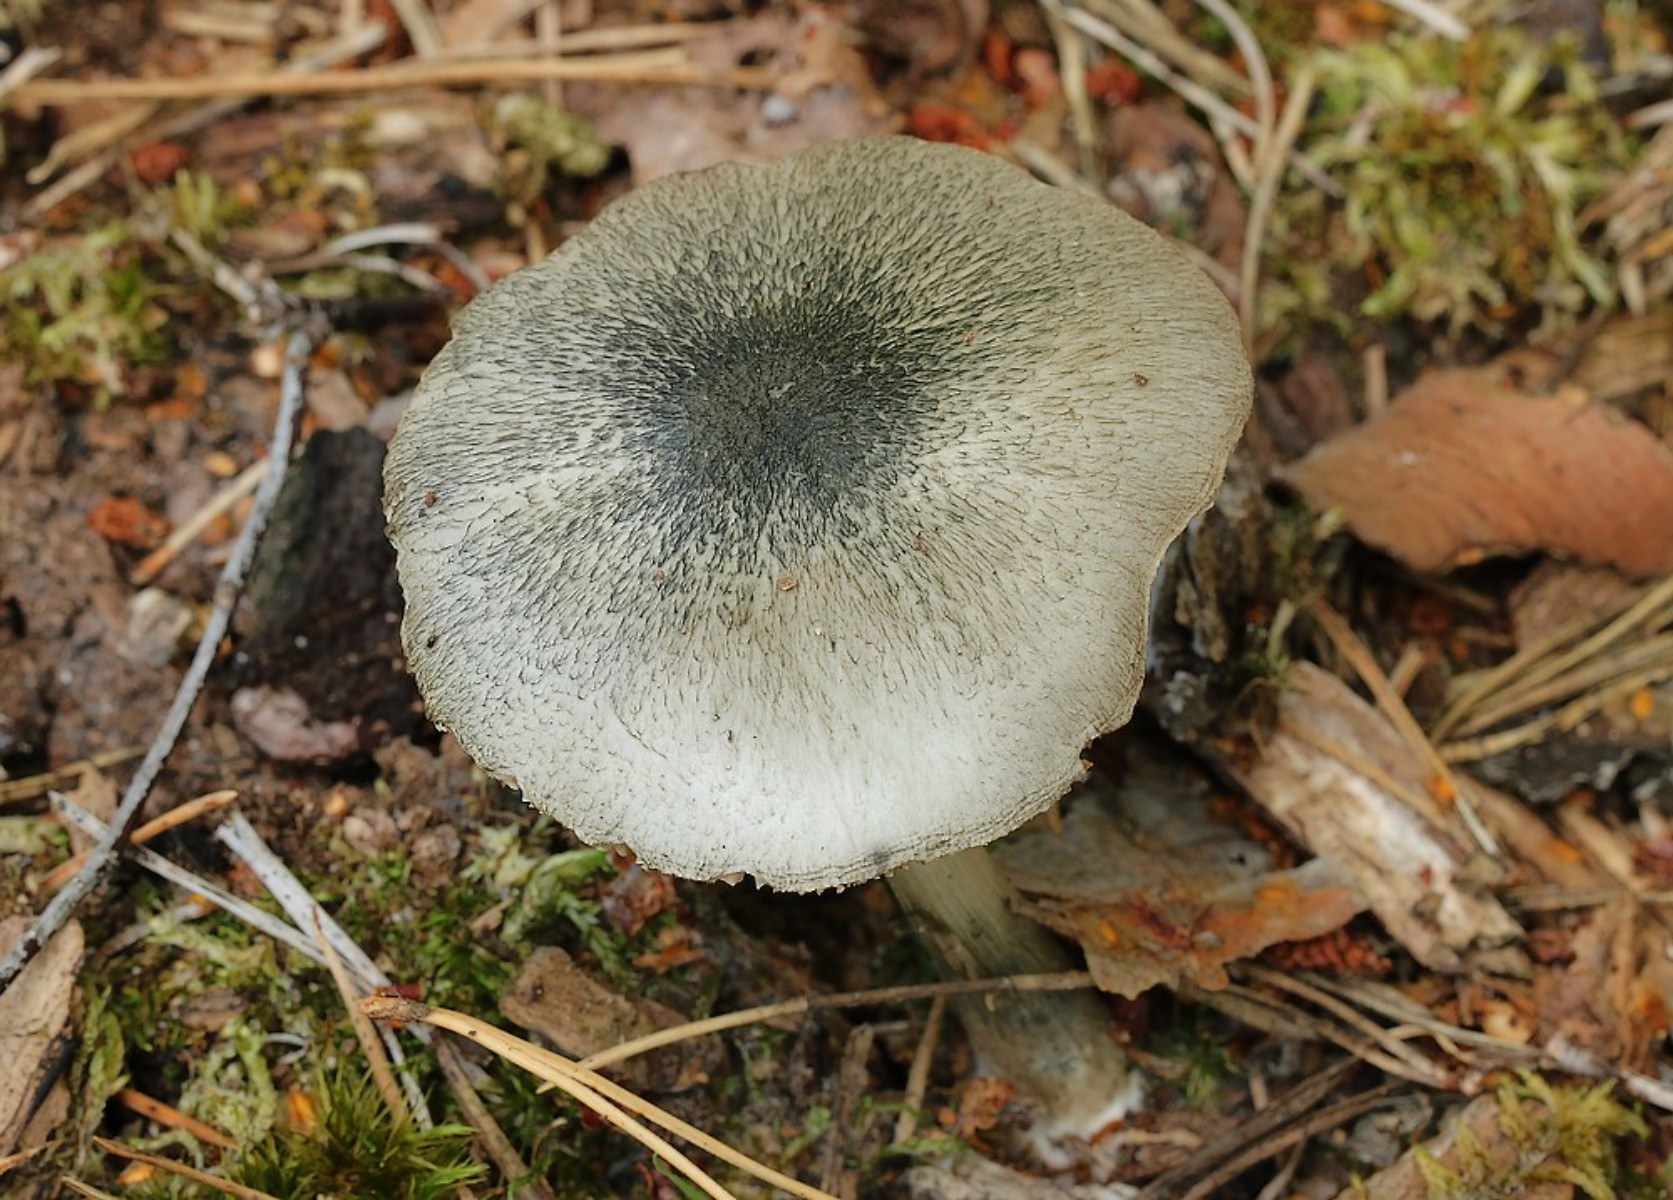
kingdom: Fungi
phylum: Basidiomycota
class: Agaricomycetes
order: Agaricales
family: Pluteaceae
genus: Pluteus
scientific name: Pluteus salicinus
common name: stiv skærmhat
